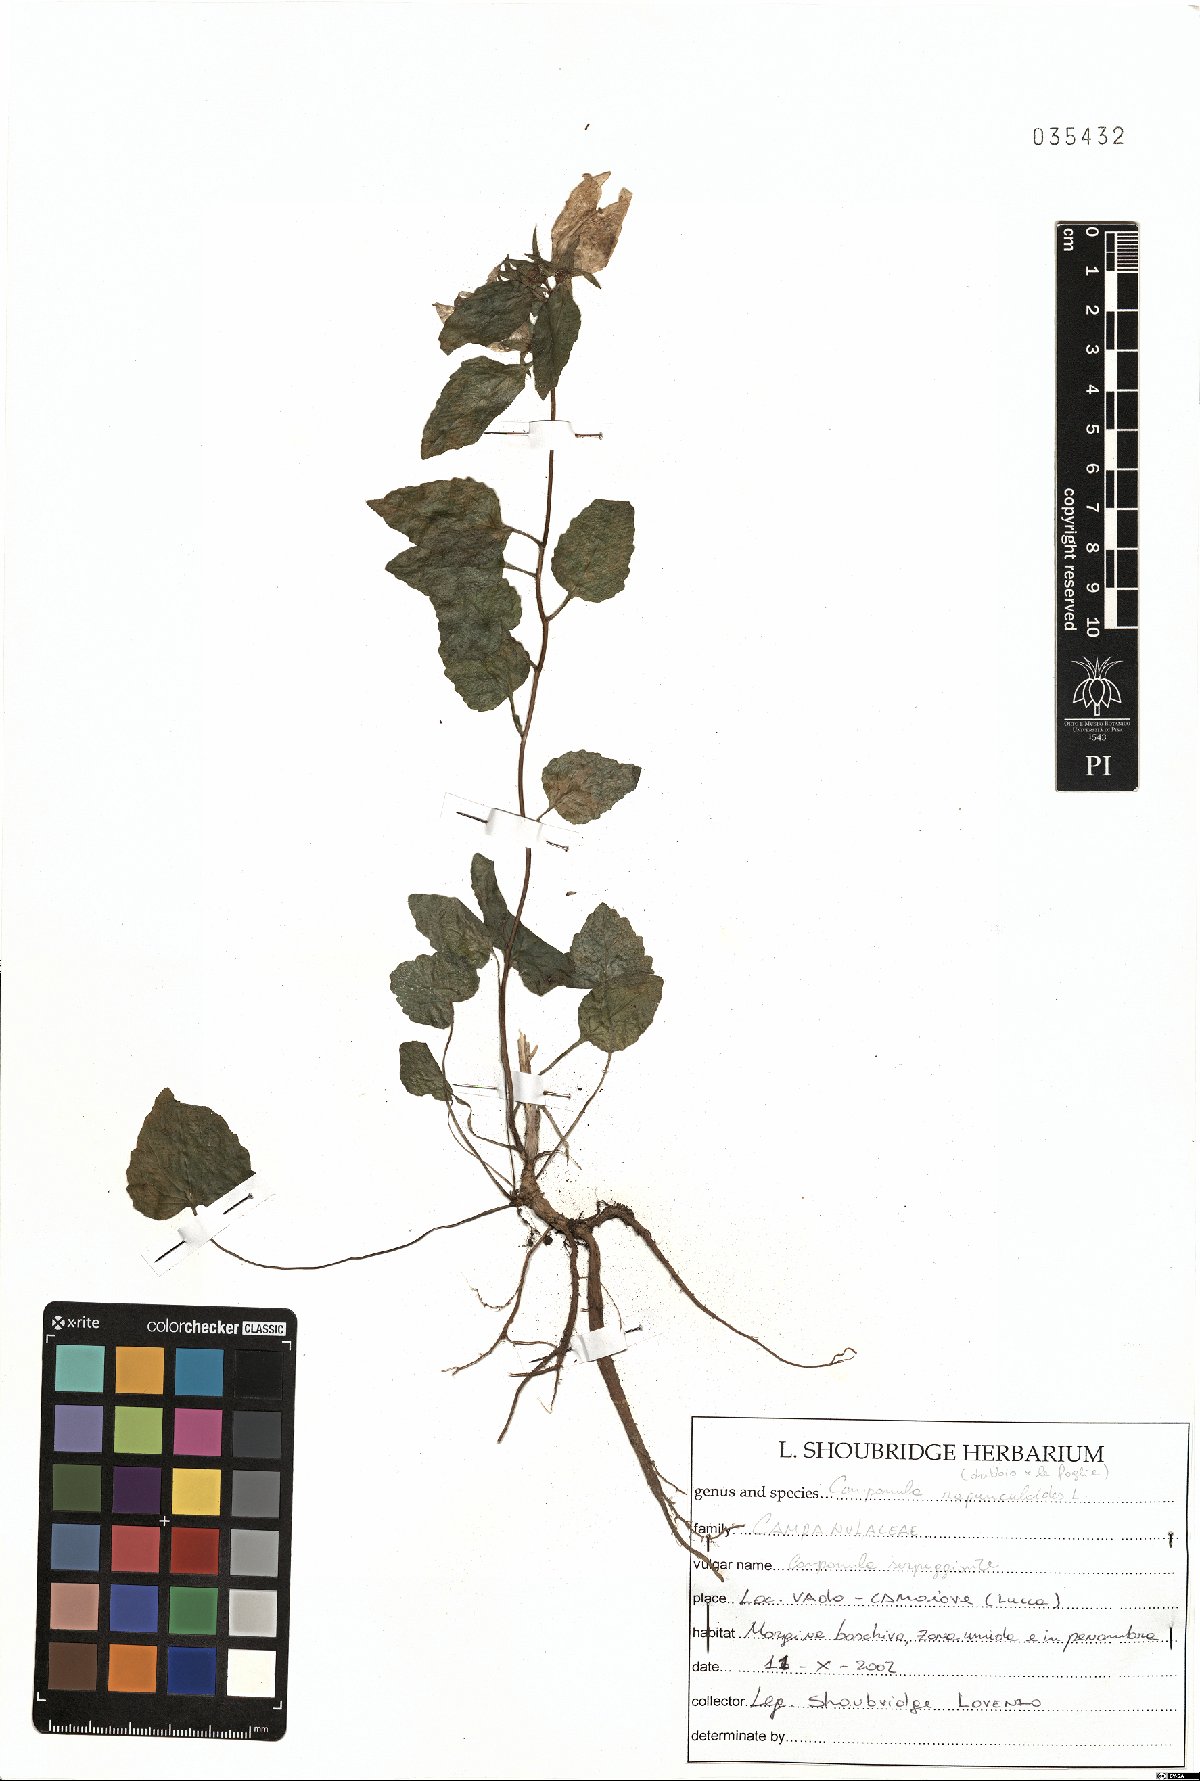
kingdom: Plantae
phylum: Tracheophyta
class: Magnoliopsida
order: Asterales
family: Campanulaceae
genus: Campanula
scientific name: Campanula rapunculoides
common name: Creeping bellflower
